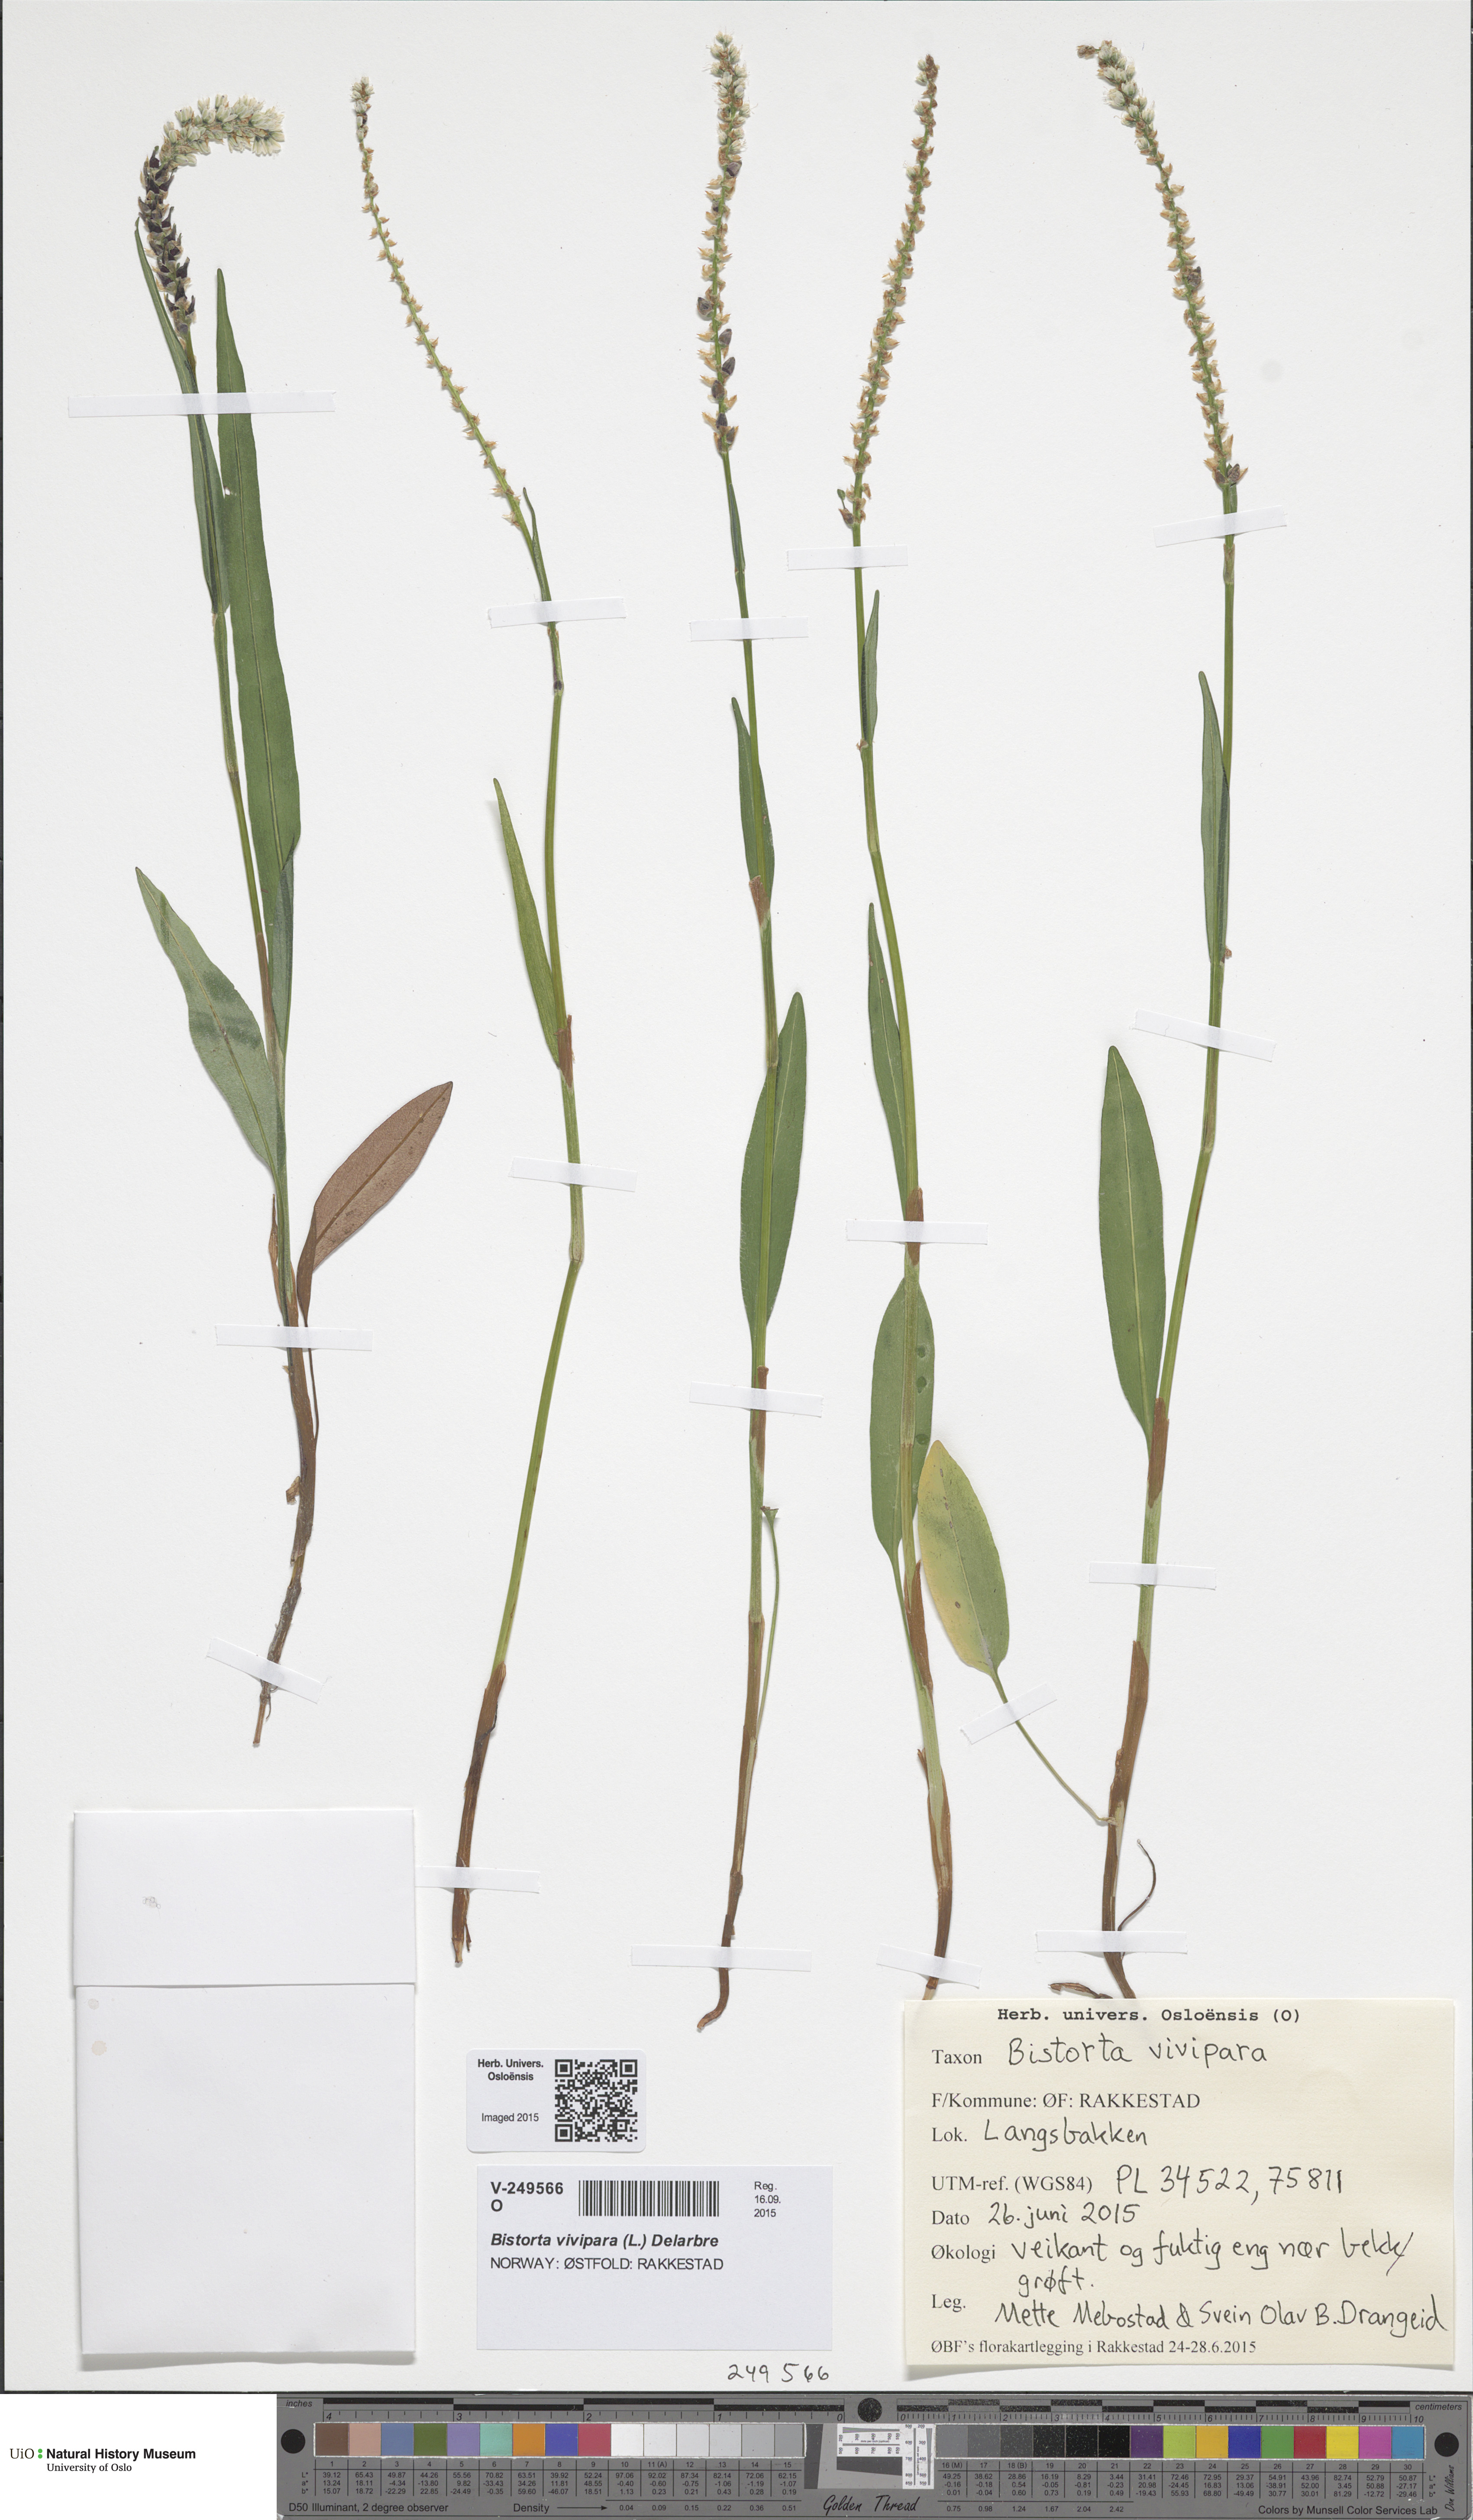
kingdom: Plantae
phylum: Tracheophyta
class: Magnoliopsida
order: Caryophyllales
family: Polygonaceae
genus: Bistorta
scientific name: Bistorta vivipara
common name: Alpine bistort
